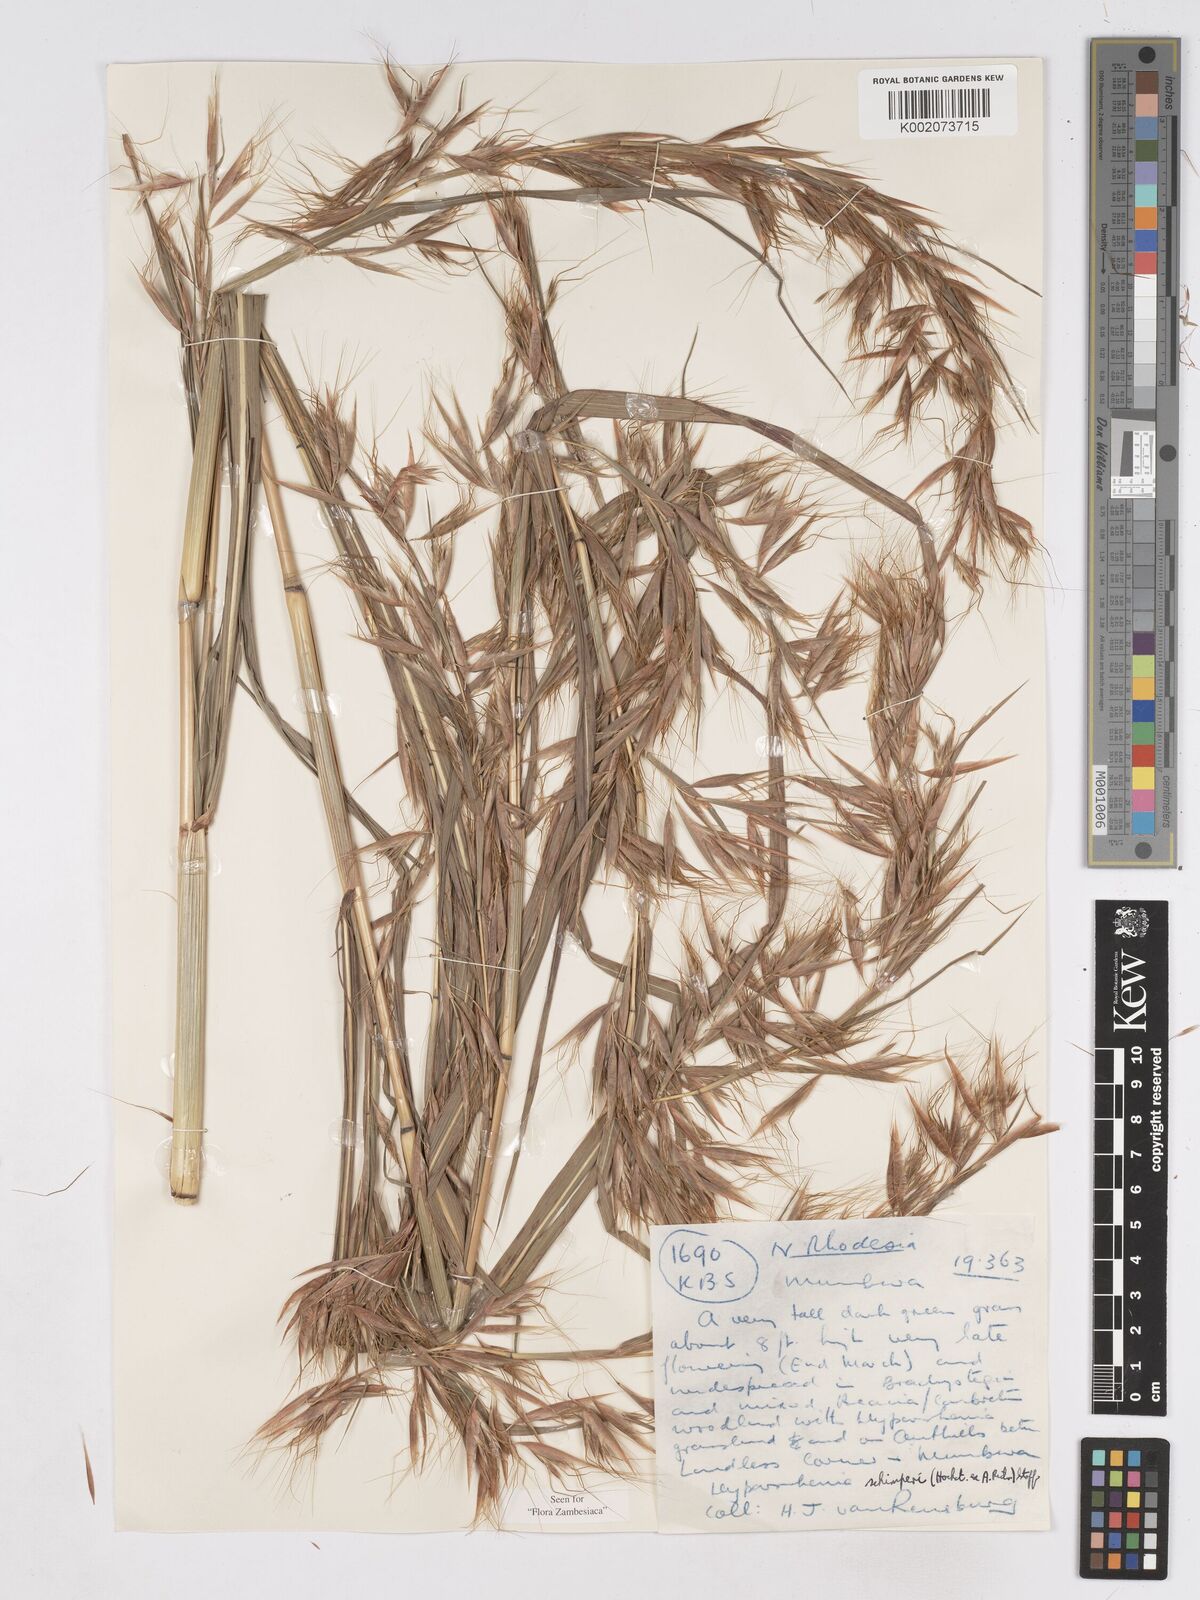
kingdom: Plantae
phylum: Tracheophyta
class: Liliopsida
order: Poales
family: Poaceae
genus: Hyparrhenia
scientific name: Hyparrhenia schimperi
